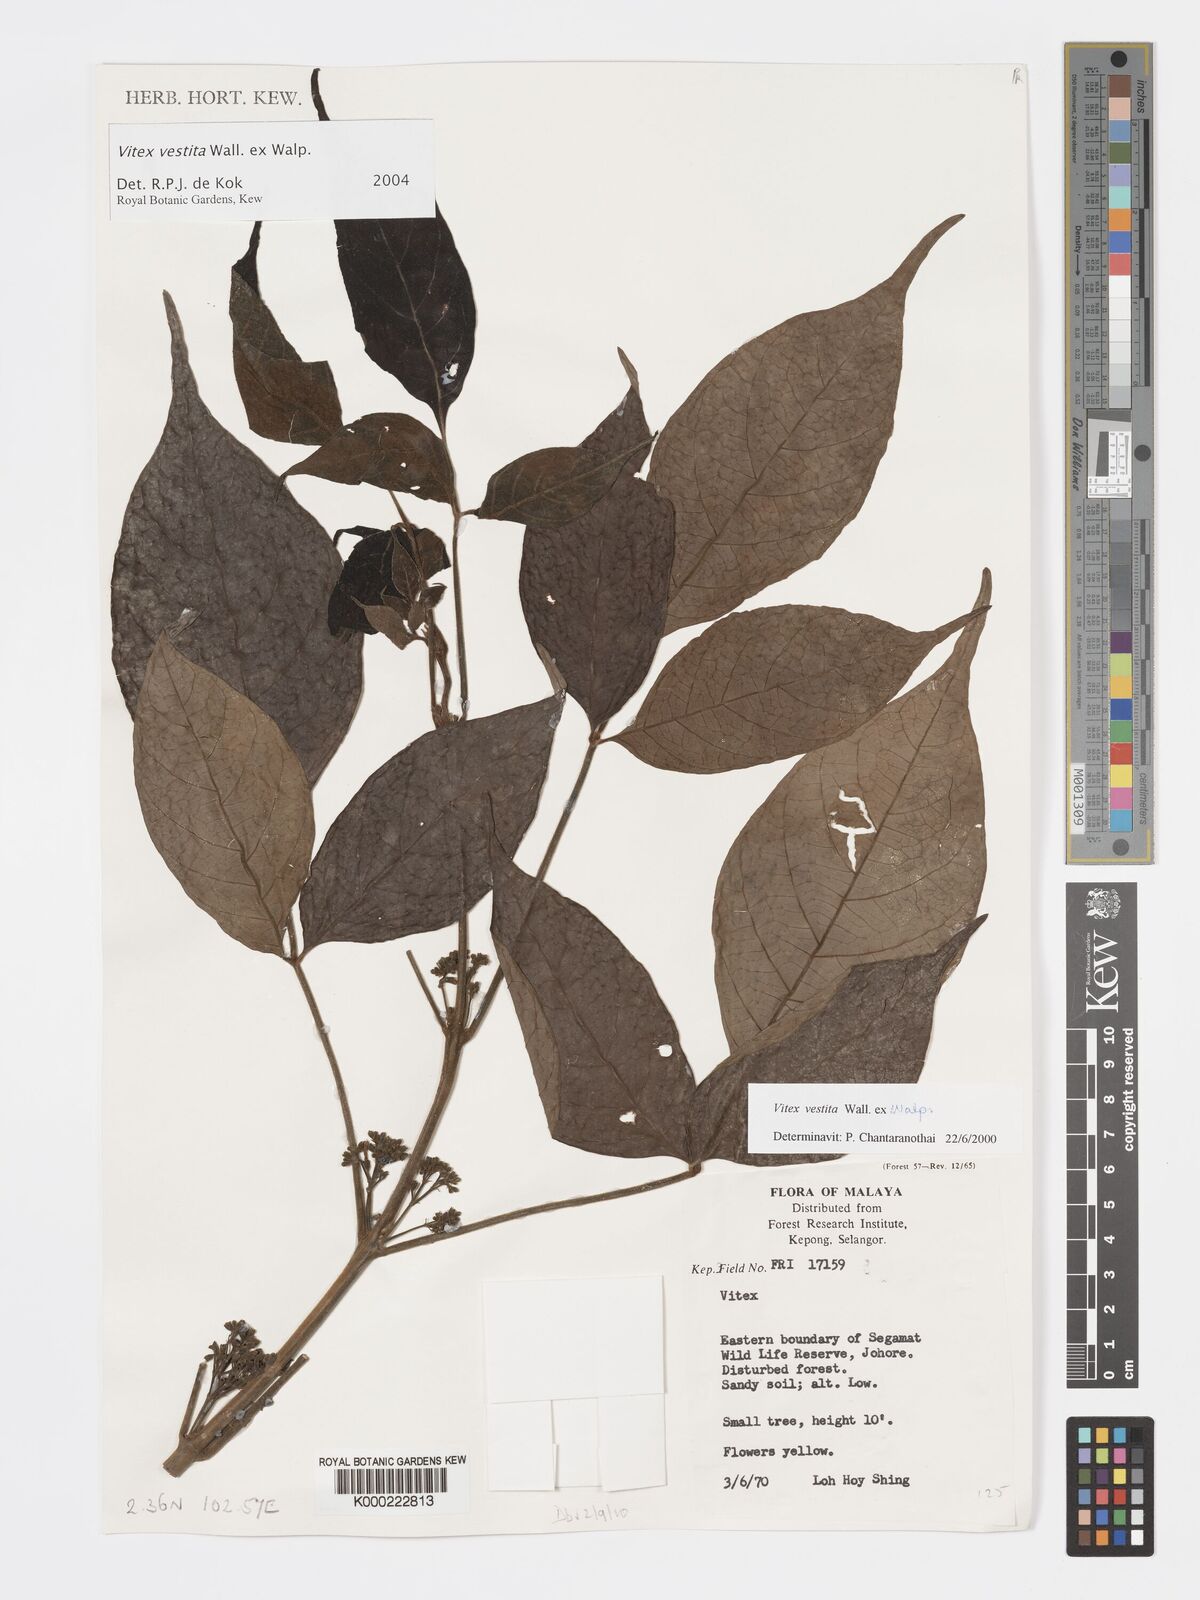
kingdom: Plantae
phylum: Tracheophyta
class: Magnoliopsida
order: Lamiales
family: Lamiaceae
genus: Vitex
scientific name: Vitex vestita
